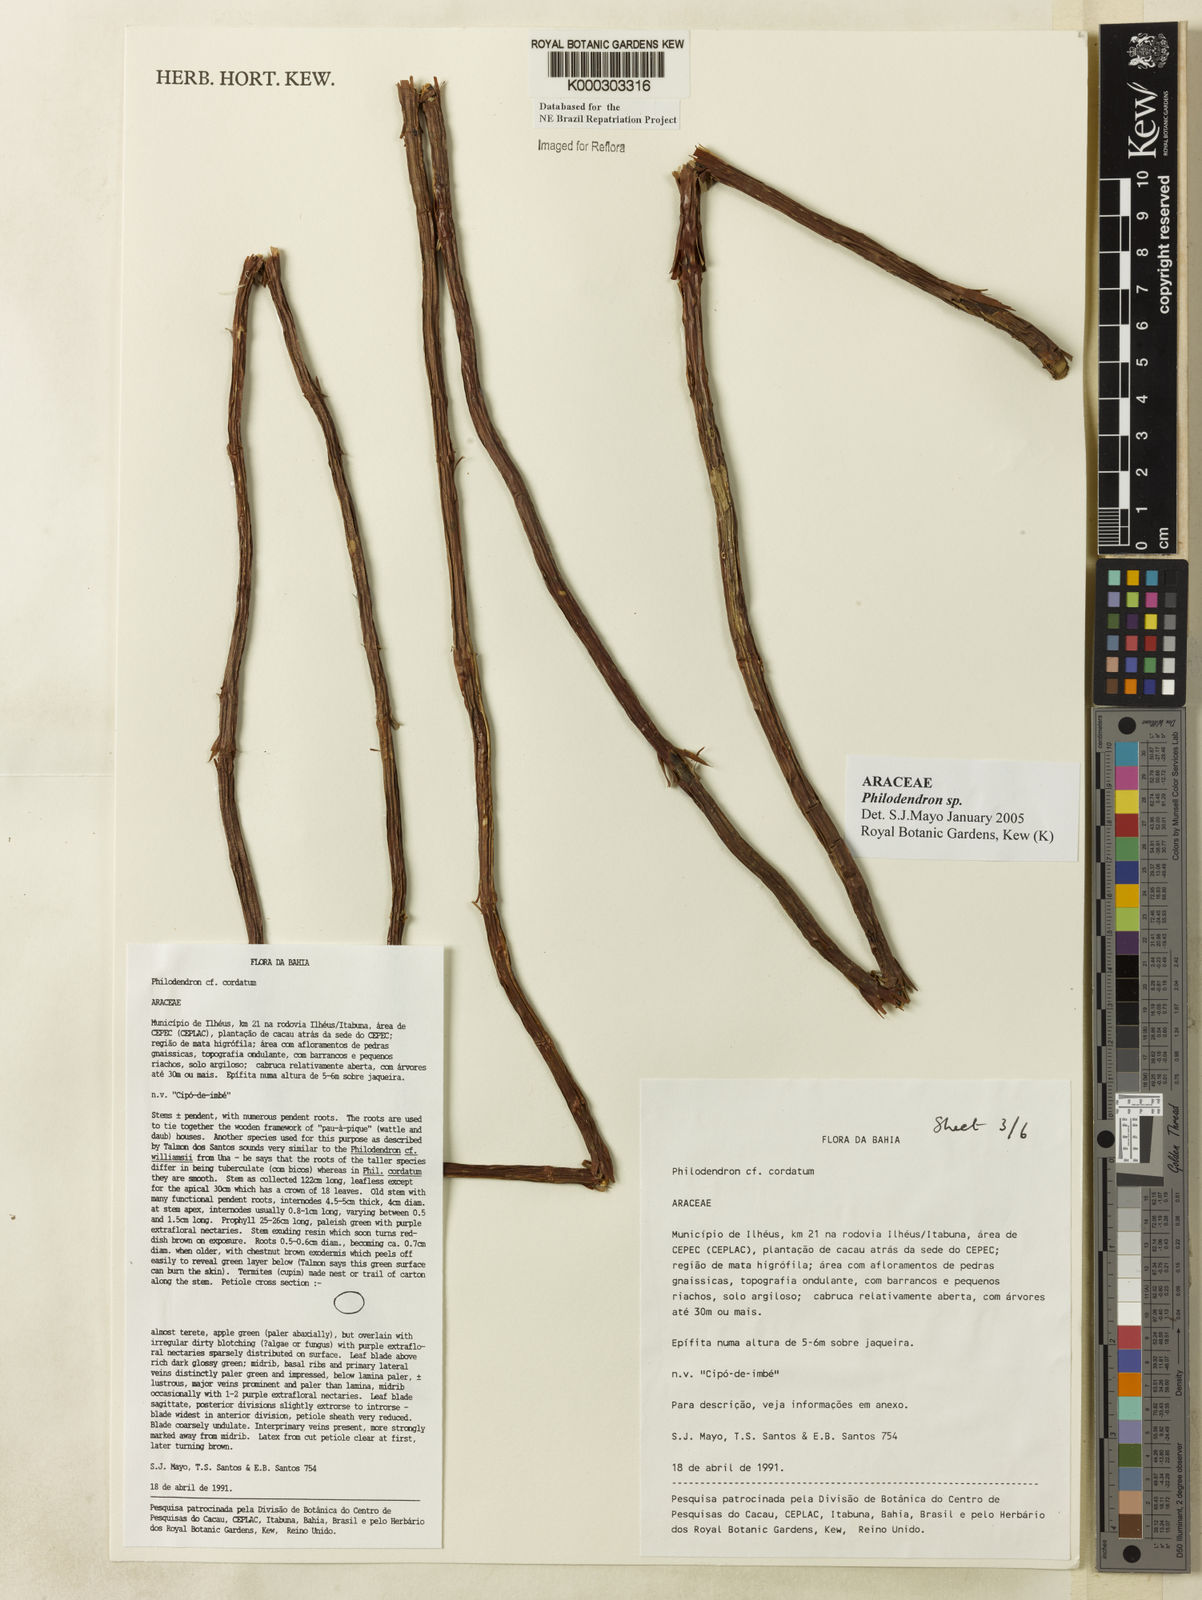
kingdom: Plantae
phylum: Tracheophyta
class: Liliopsida
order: Alismatales
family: Araceae
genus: Philodendron
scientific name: Philodendron
